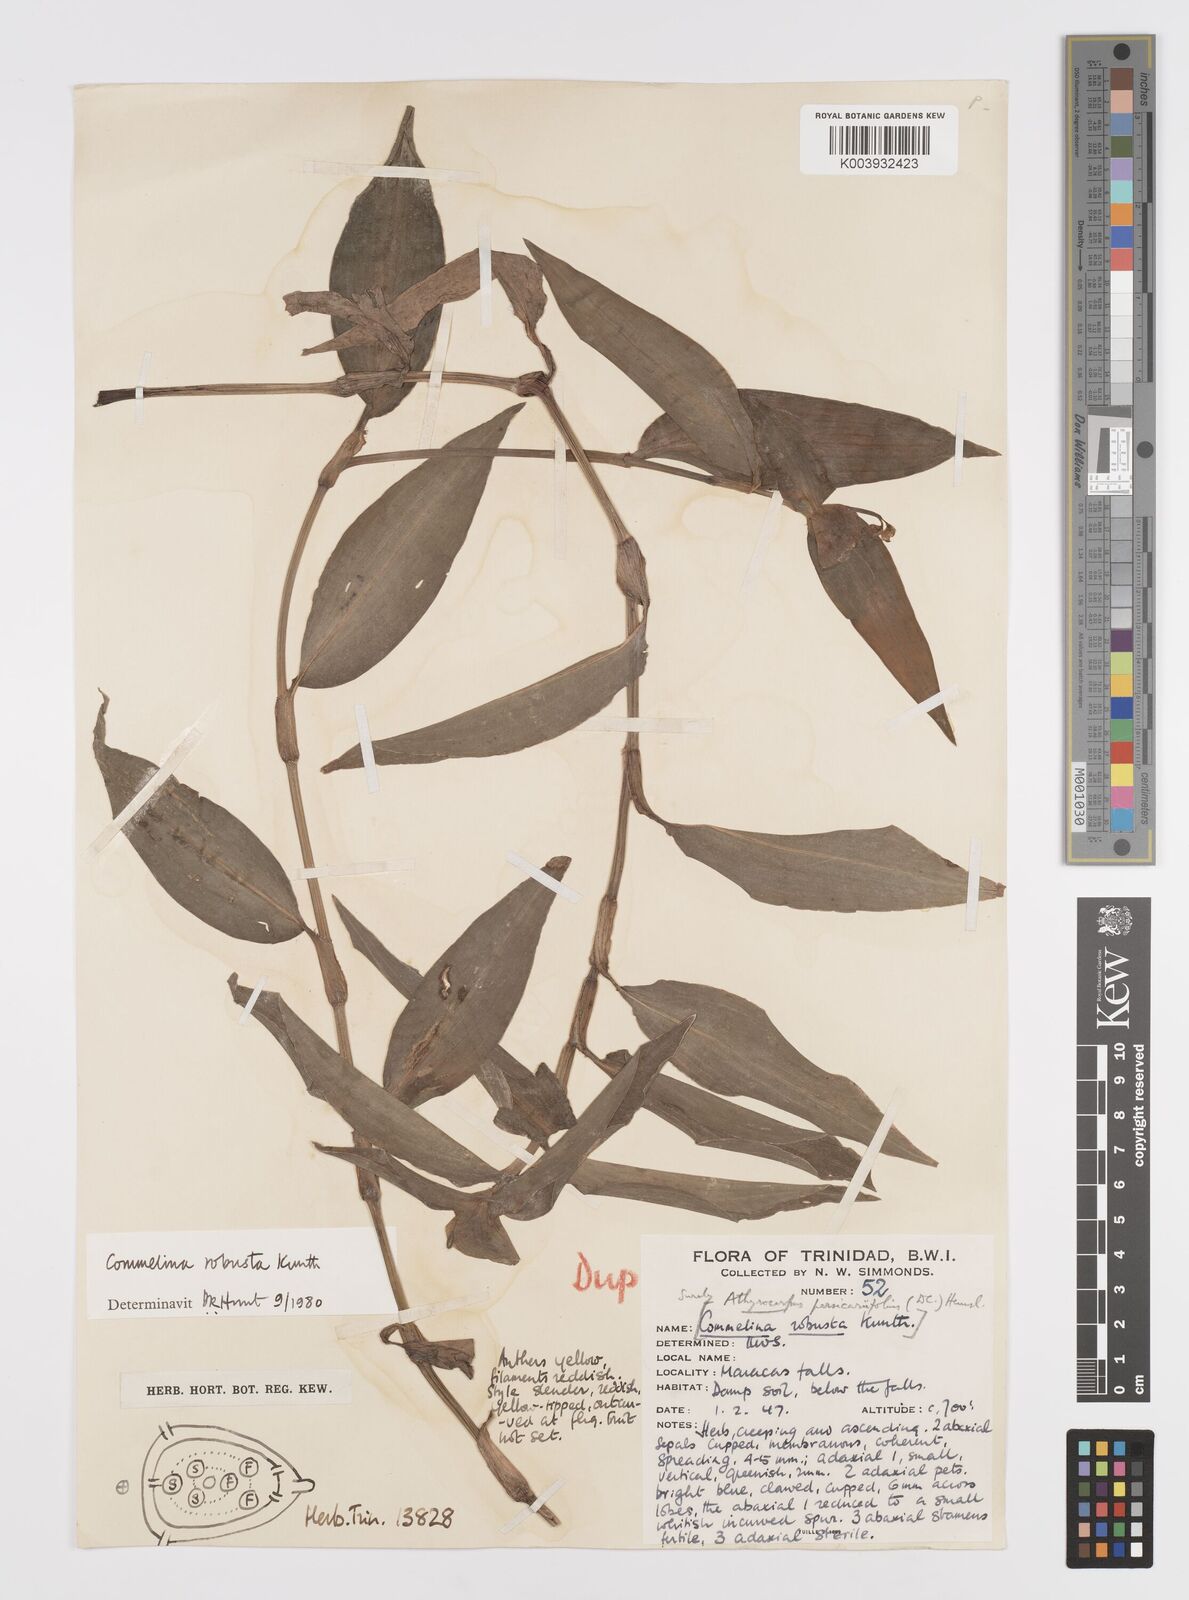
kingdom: Plantae
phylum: Tracheophyta
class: Liliopsida
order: Commelinales
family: Commelinaceae
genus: Commelina
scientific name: Commelina obliqua
